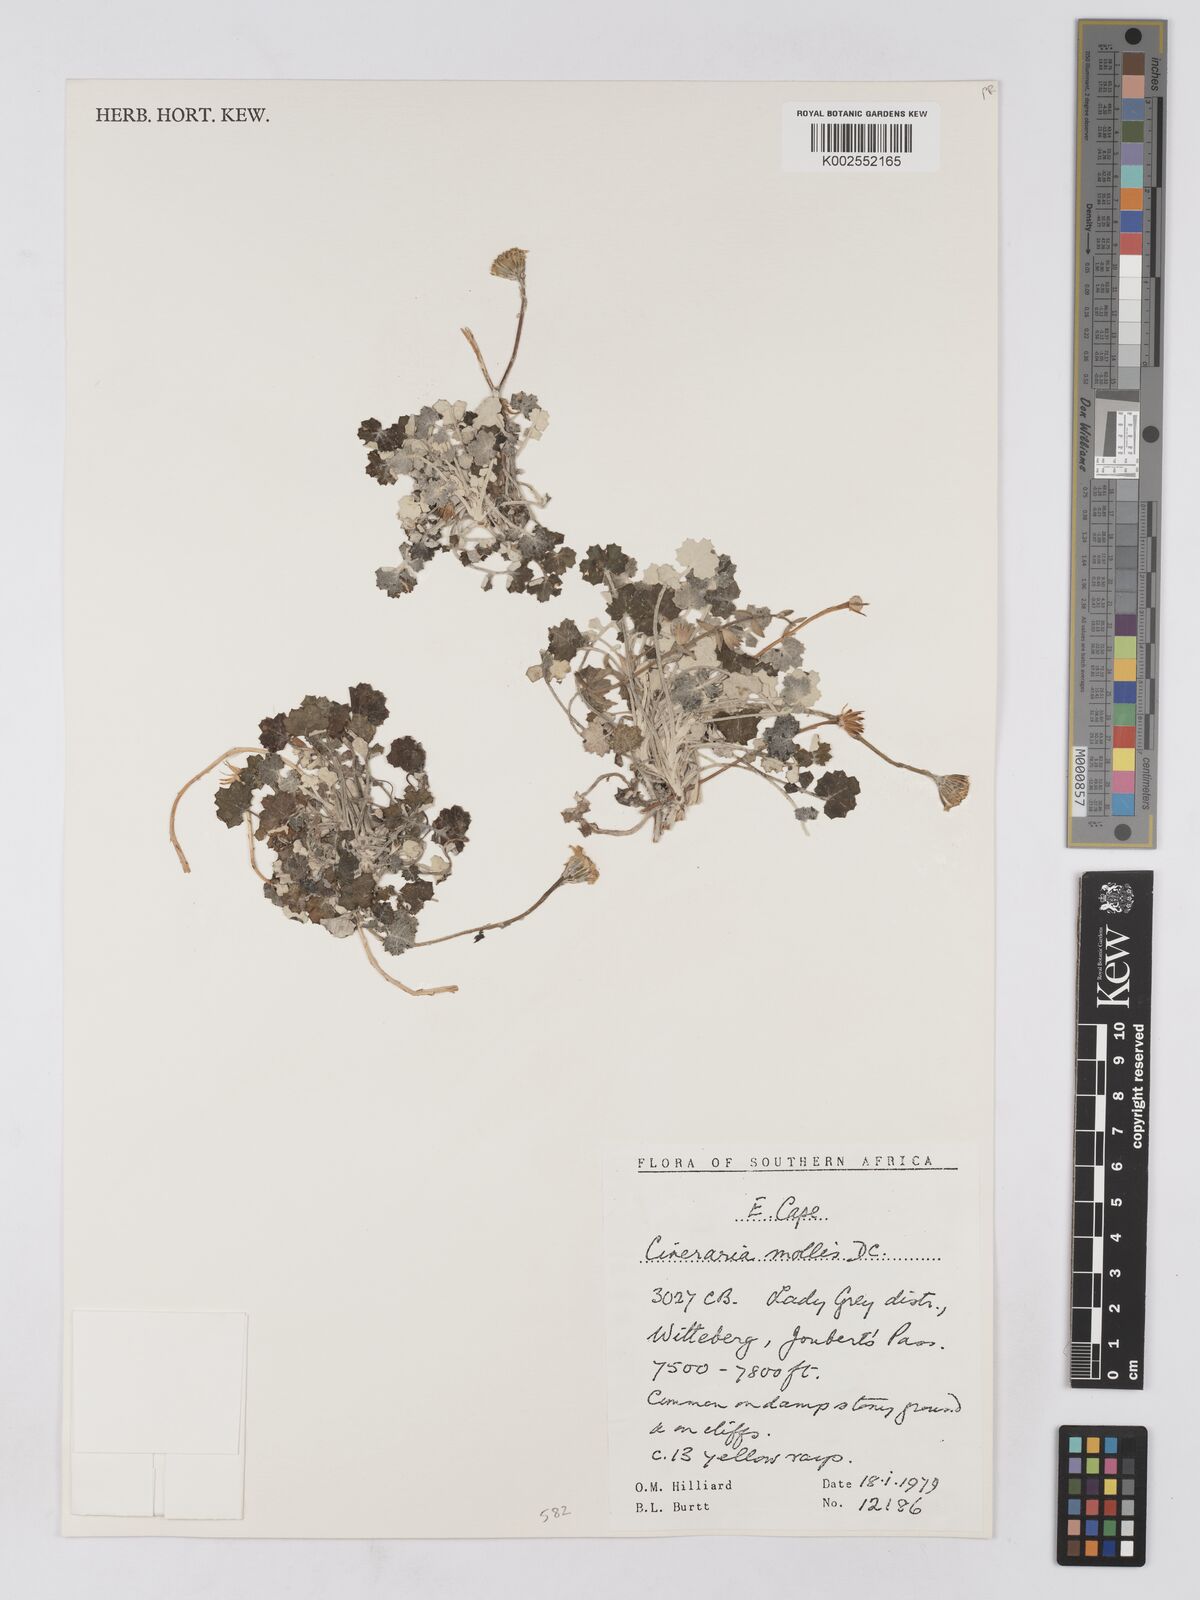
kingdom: Plantae
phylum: Tracheophyta
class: Magnoliopsida
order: Asterales
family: Asteraceae
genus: Cineraria
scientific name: Cineraria mollis
